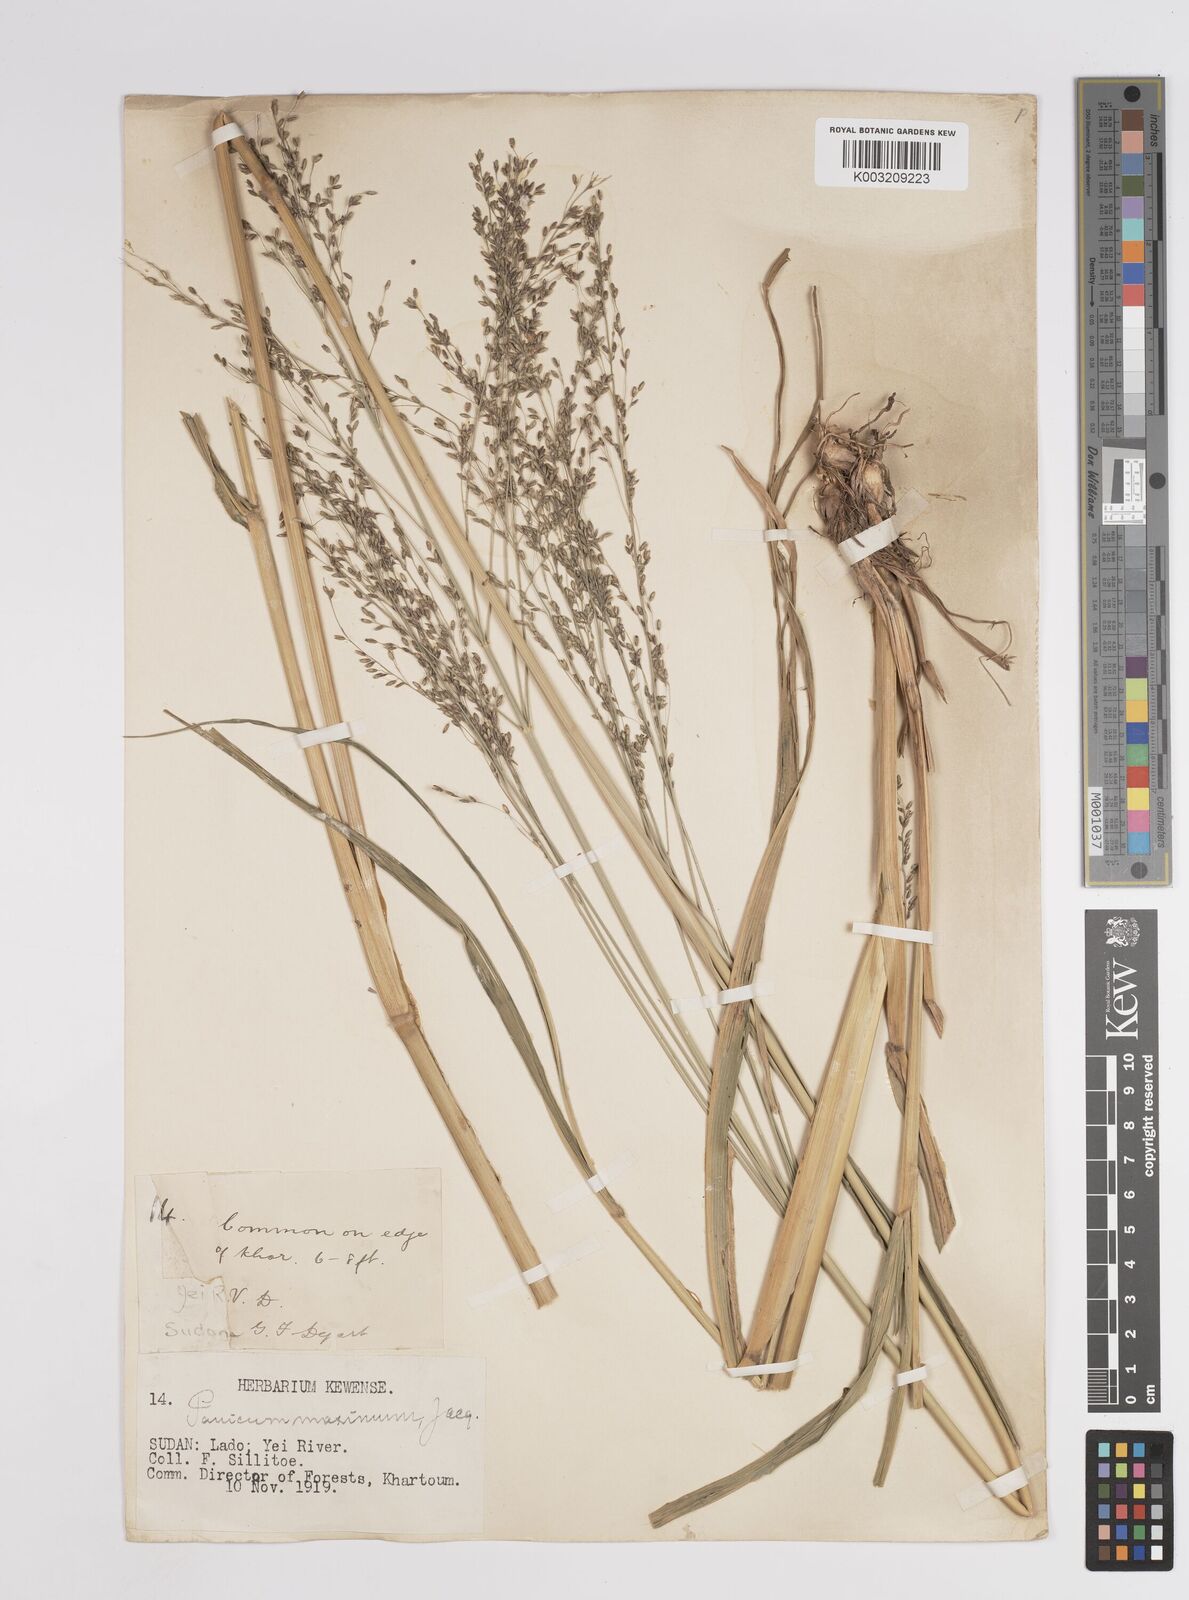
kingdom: Plantae
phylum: Tracheophyta
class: Liliopsida
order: Poales
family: Poaceae
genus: Megathyrsus
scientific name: Megathyrsus maximus
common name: Guineagrass
